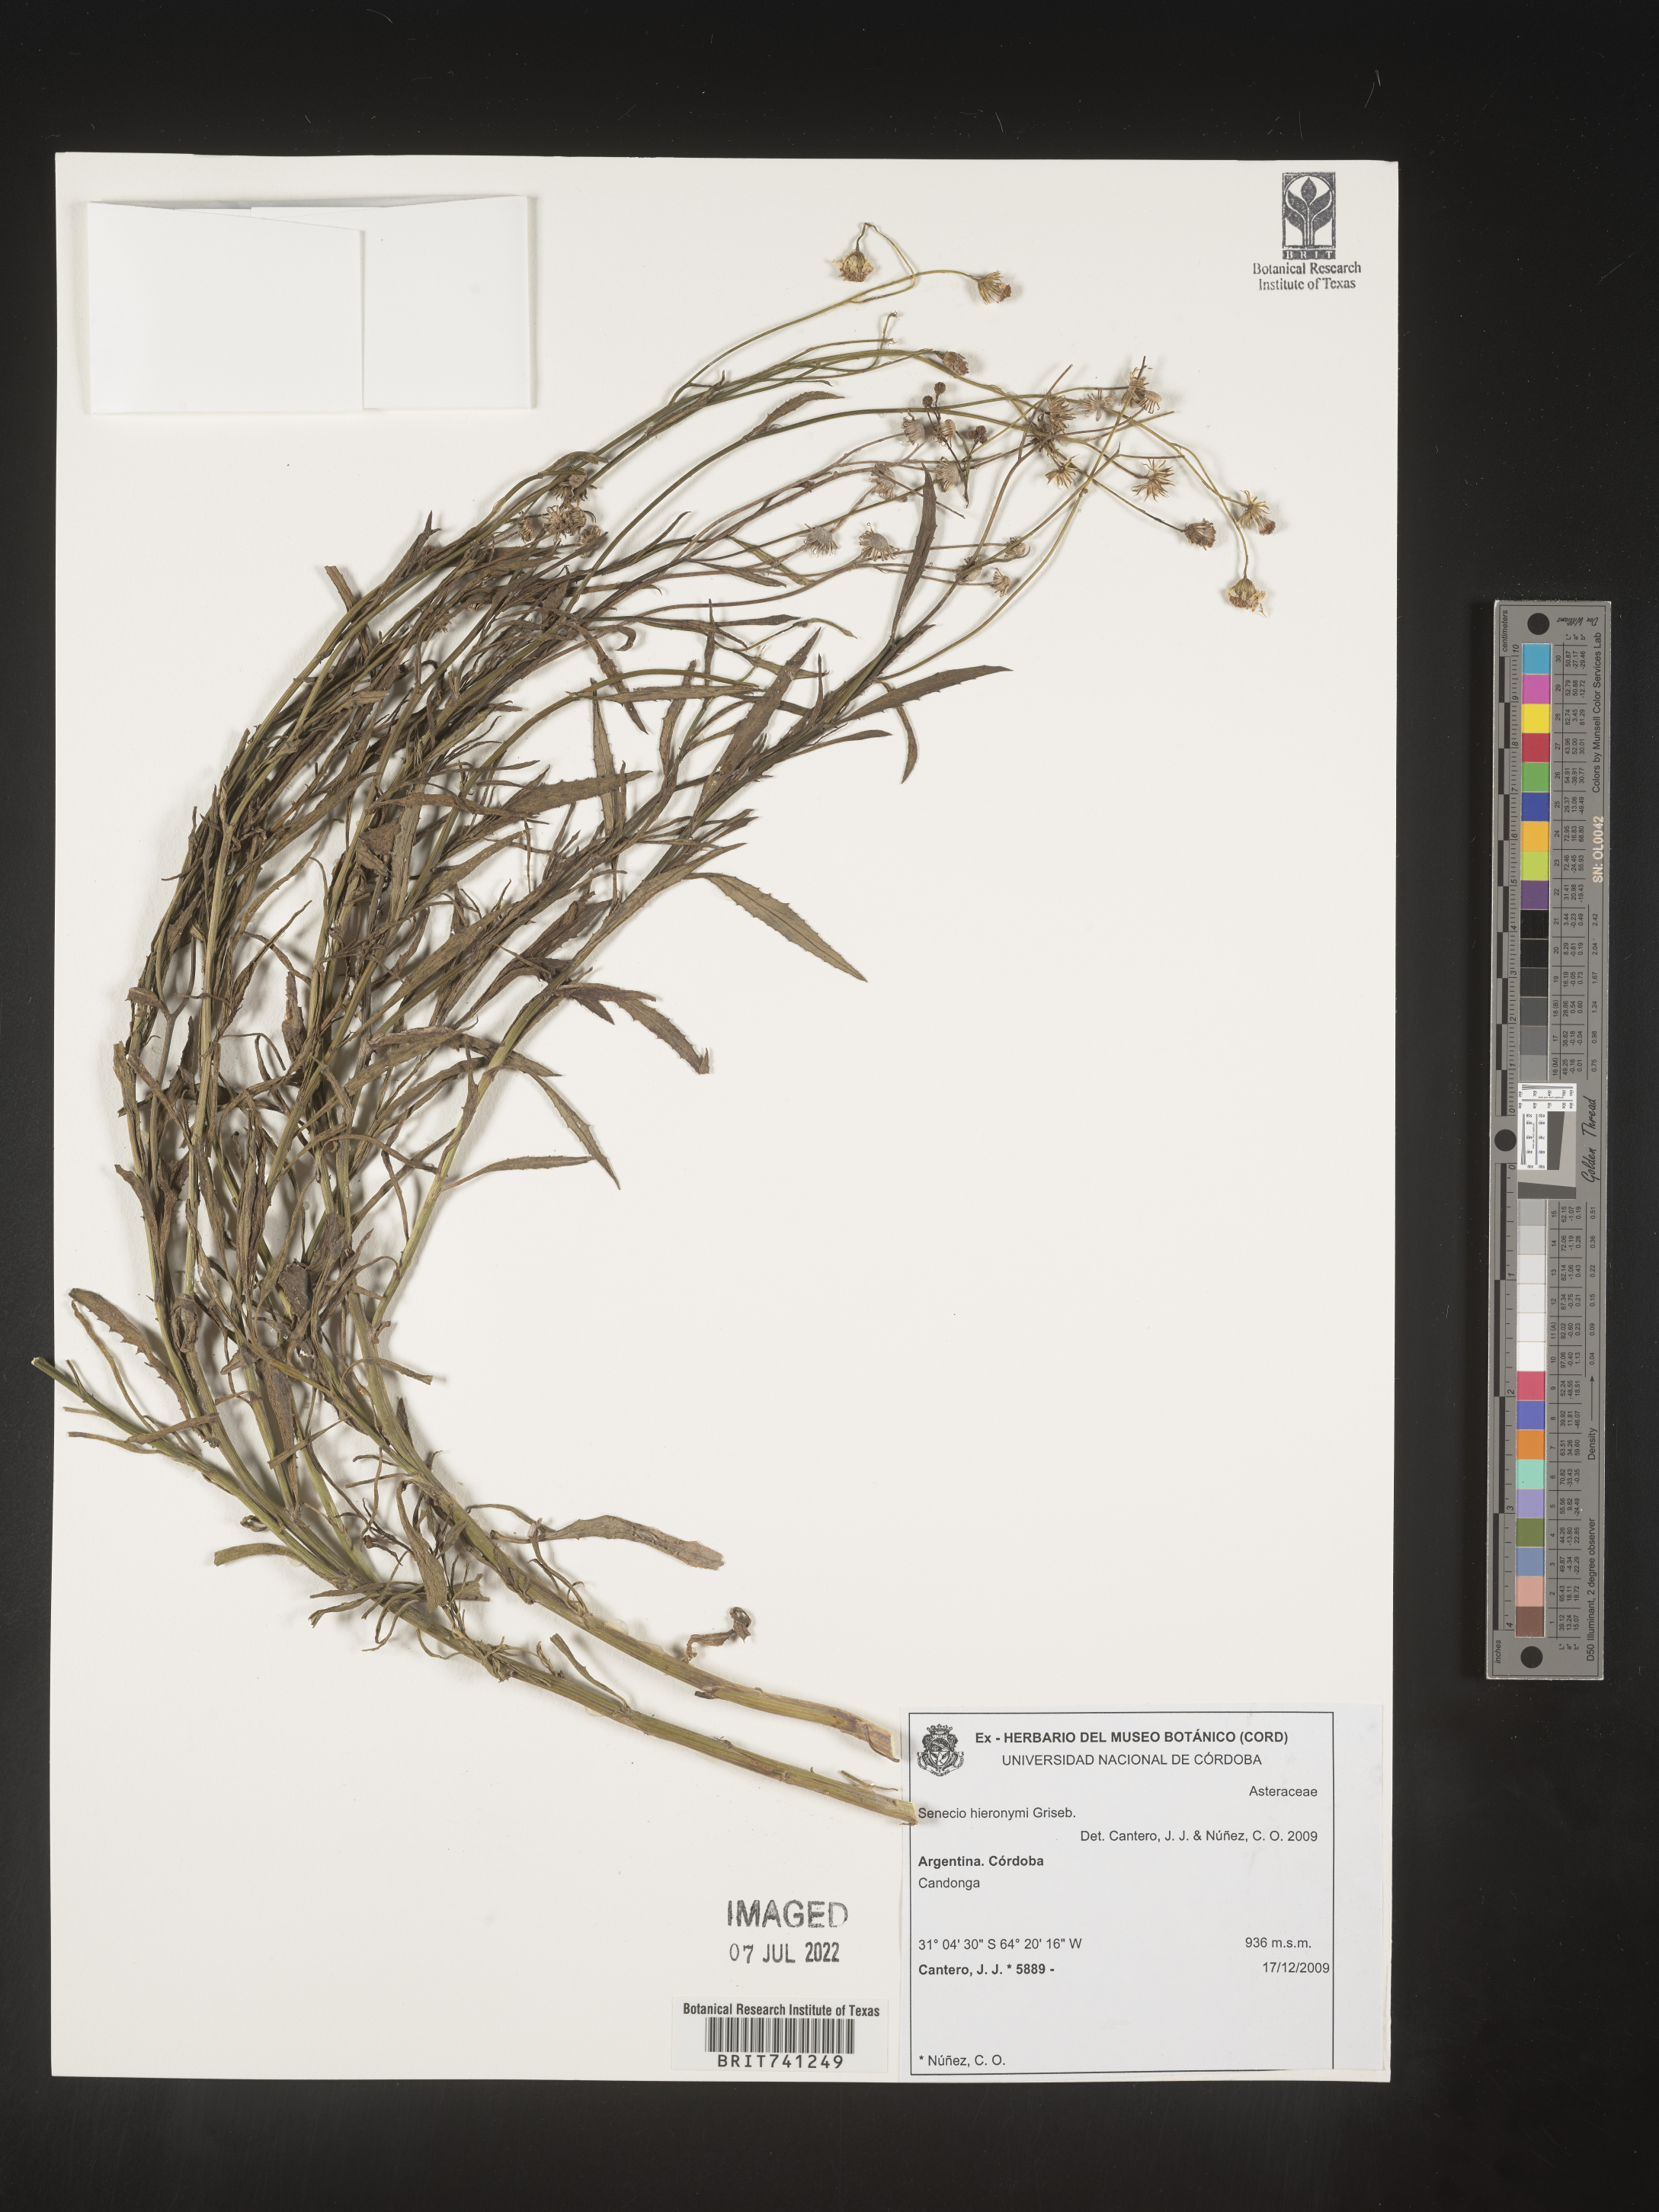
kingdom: Plantae
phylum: Tracheophyta
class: Magnoliopsida
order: Asterales
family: Asteraceae
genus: Senecio
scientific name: Senecio
